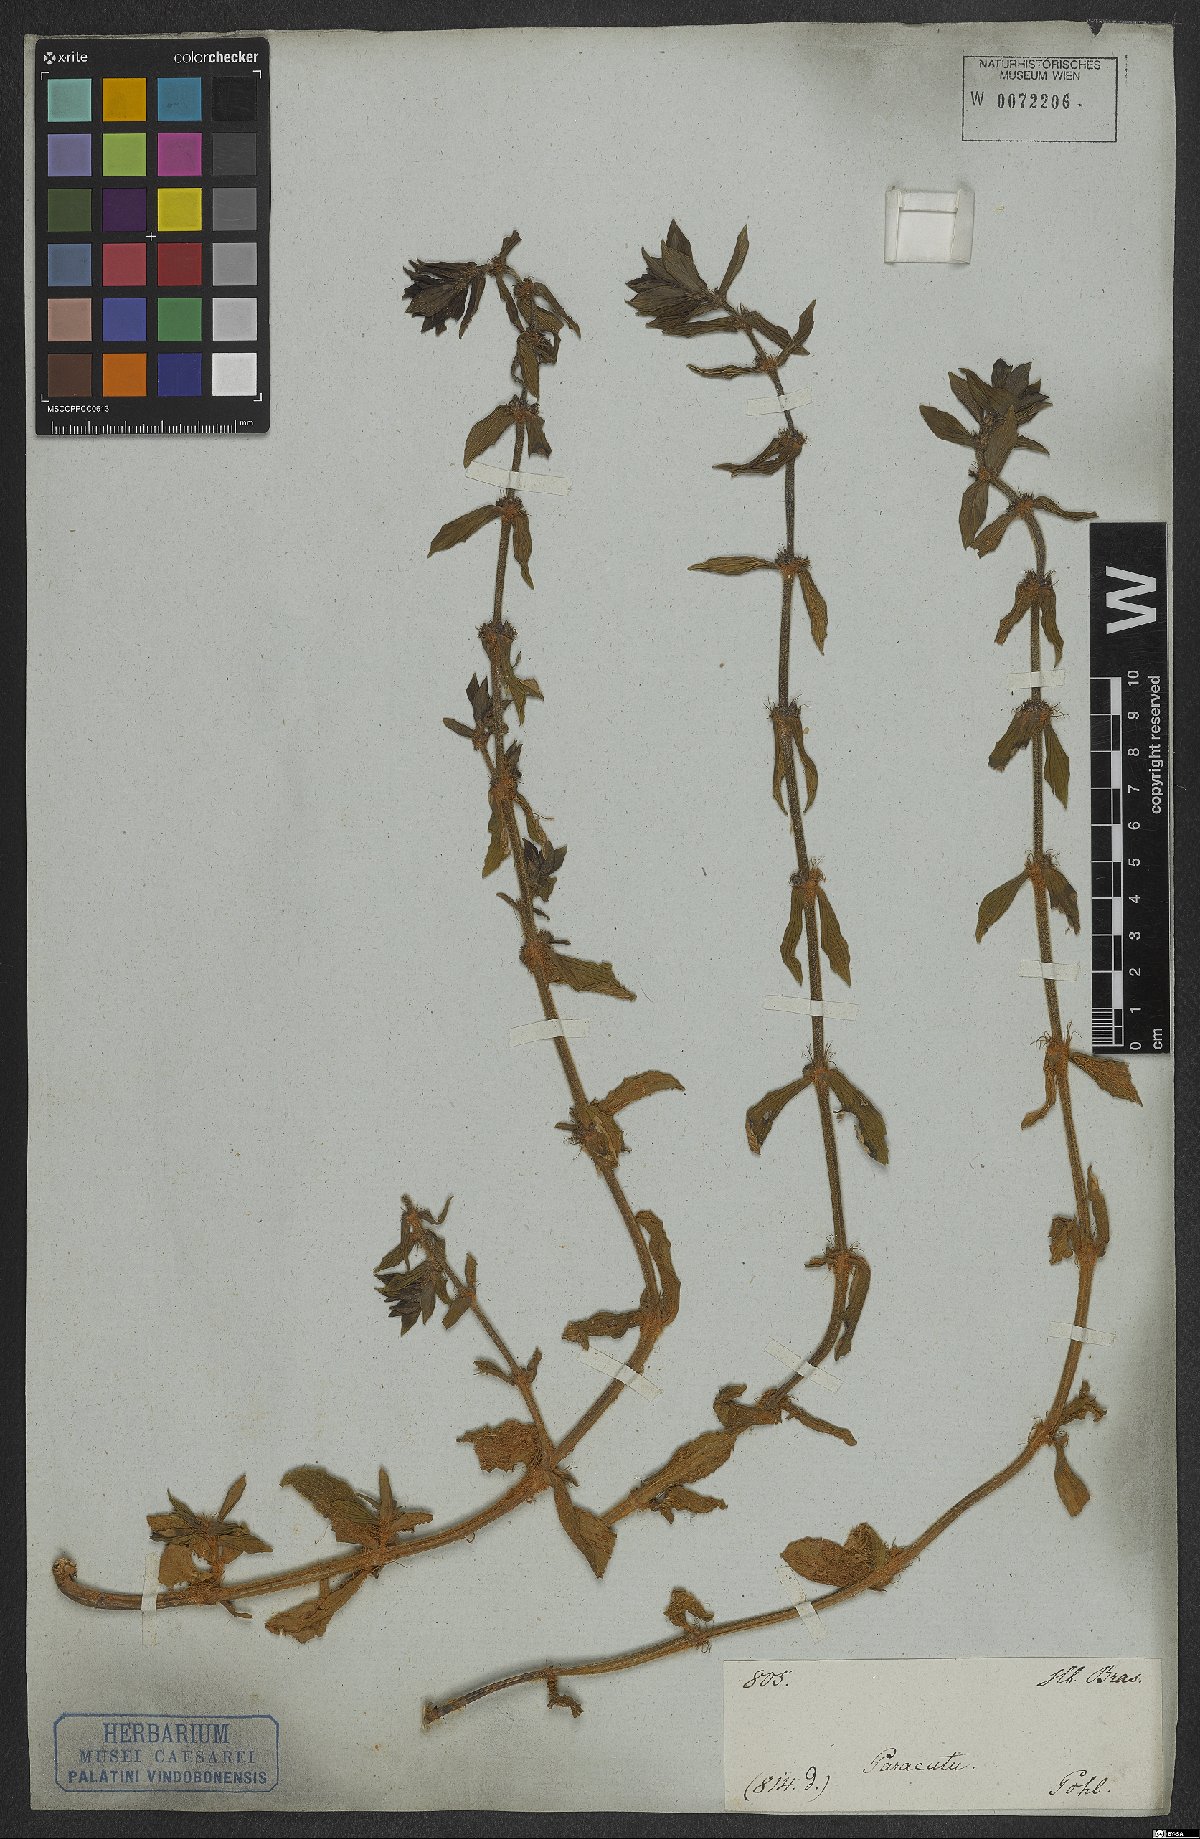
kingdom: Plantae
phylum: Tracheophyta
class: Magnoliopsida
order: Gentianales
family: Rubiaceae
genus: Spermacoce
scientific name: Spermacoce multiflora
